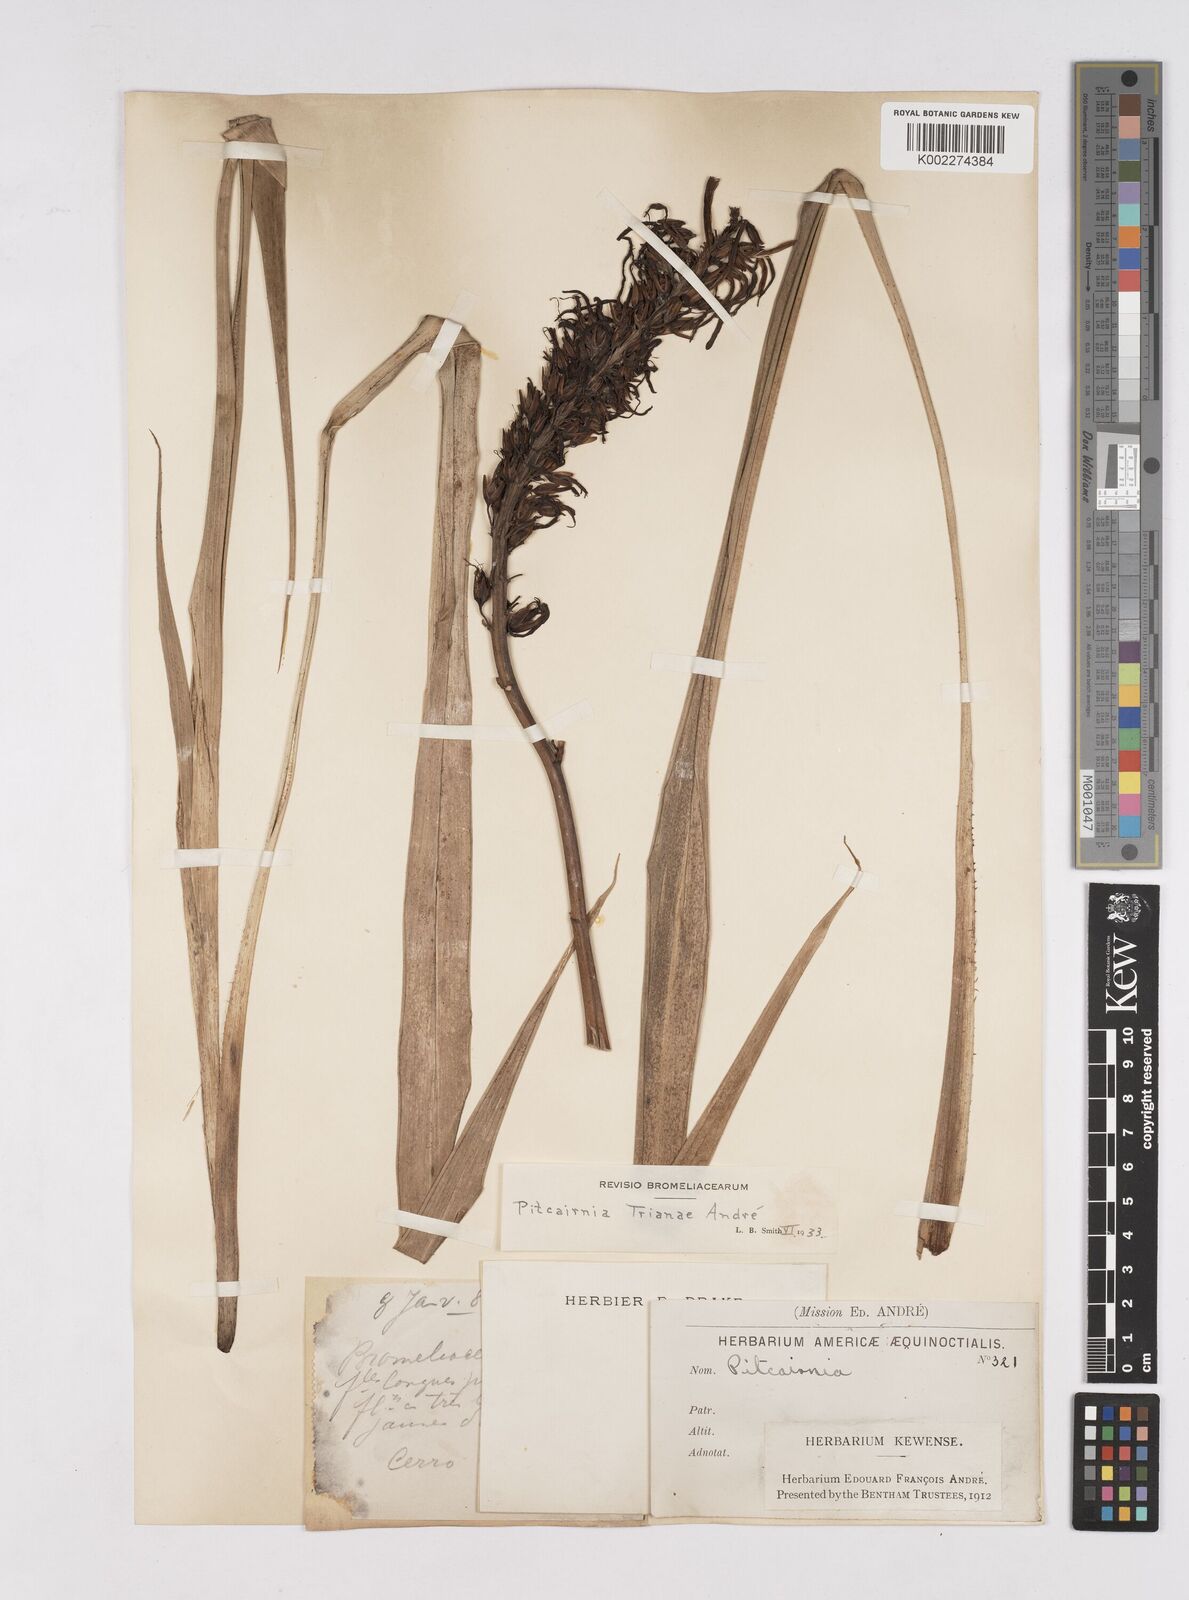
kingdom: Plantae
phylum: Tracheophyta
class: Liliopsida
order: Poales
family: Bromeliaceae
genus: Pitcairnia
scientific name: Pitcairnia trianae
